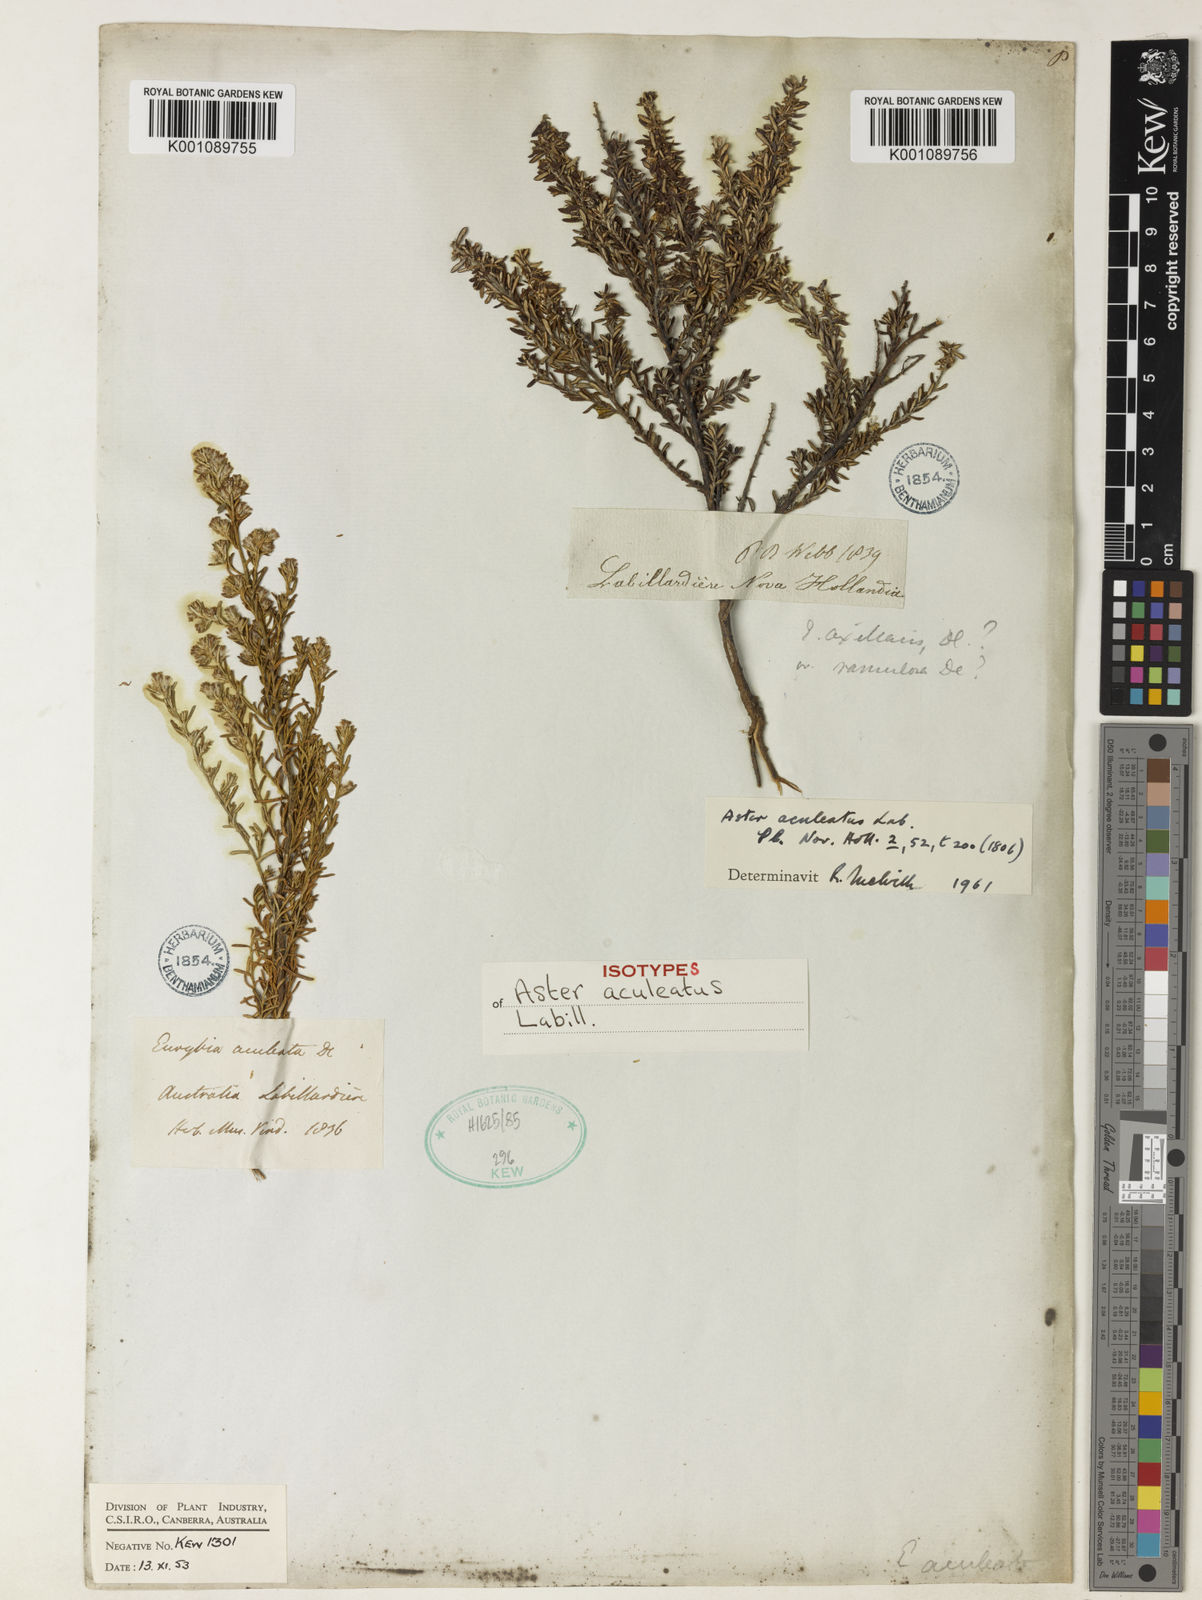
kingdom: Plantae
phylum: Tracheophyta
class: Magnoliopsida
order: Asterales
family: Asteraceae
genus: Olearia
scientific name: Olearia ramulosa
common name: Twiggy daisybush
